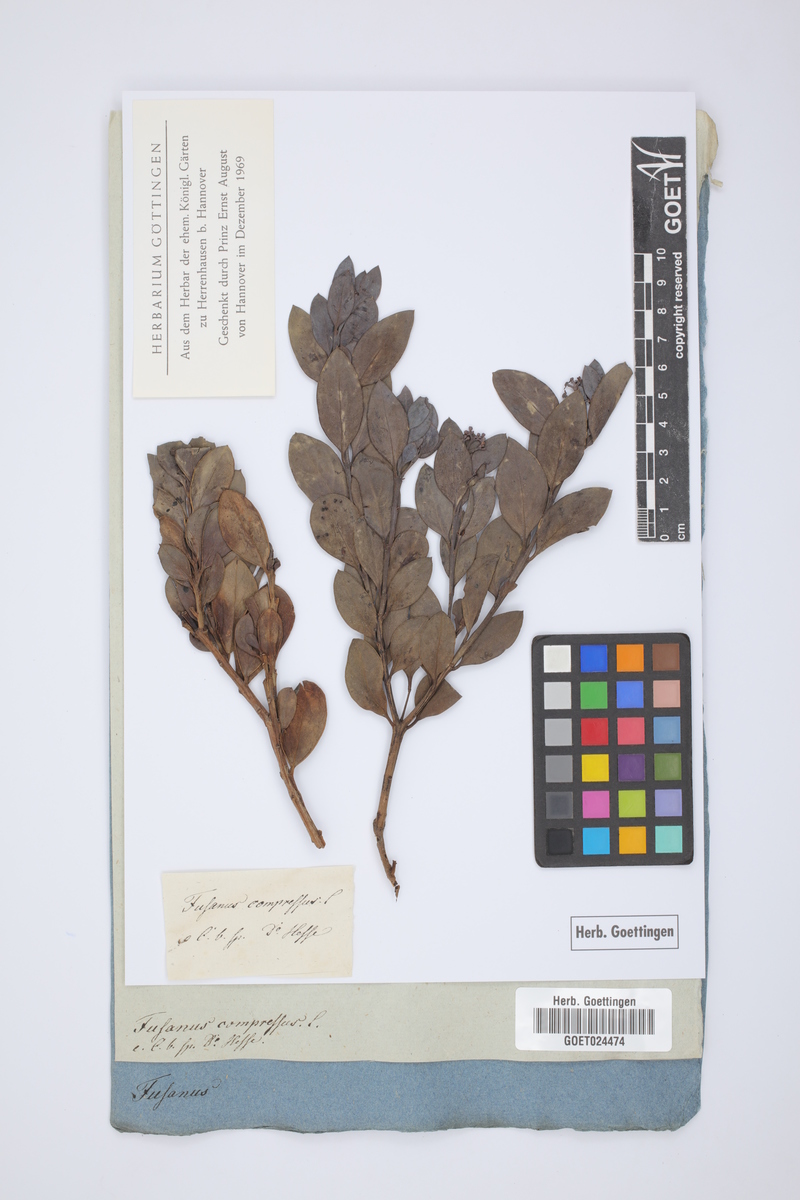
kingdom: Plantae
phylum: Tracheophyta
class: Magnoliopsida
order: Santalales
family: Santalaceae
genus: Osyris
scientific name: Osyris compressa
